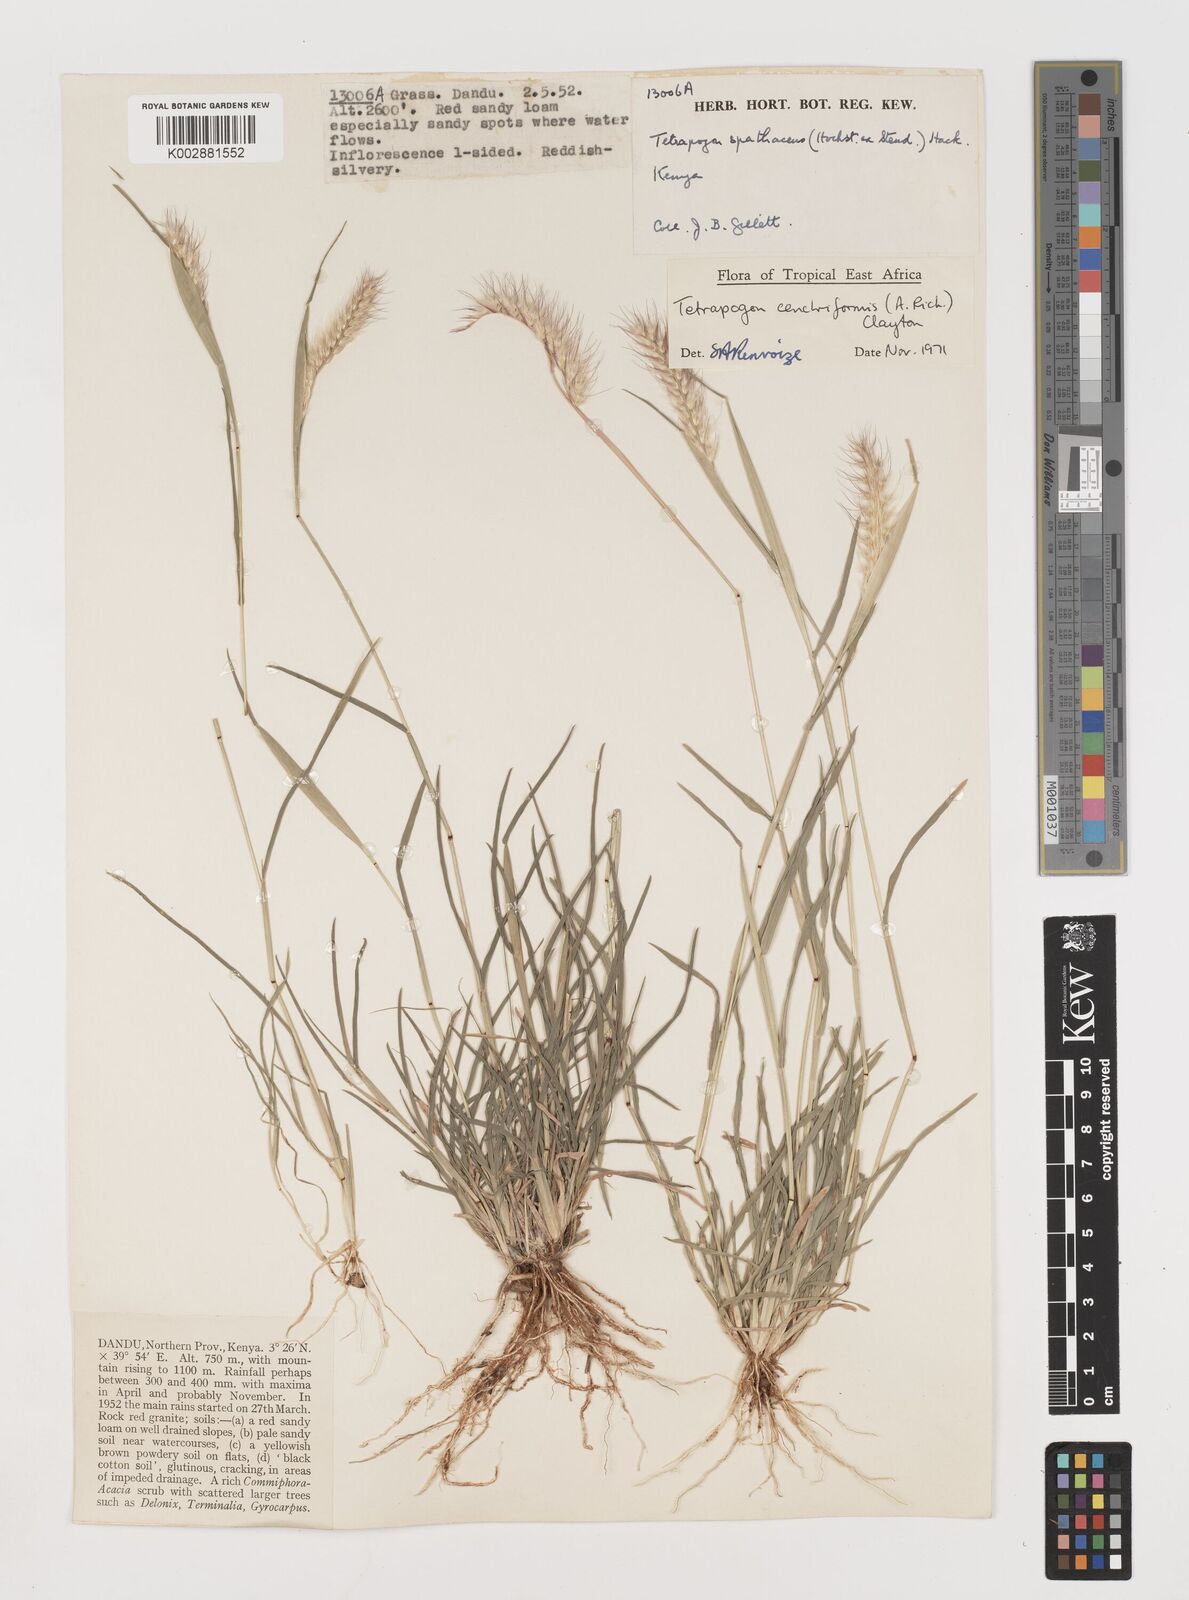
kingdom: Plantae
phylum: Tracheophyta
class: Liliopsida
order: Poales
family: Poaceae
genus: Tetrapogon
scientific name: Tetrapogon cenchriformis
